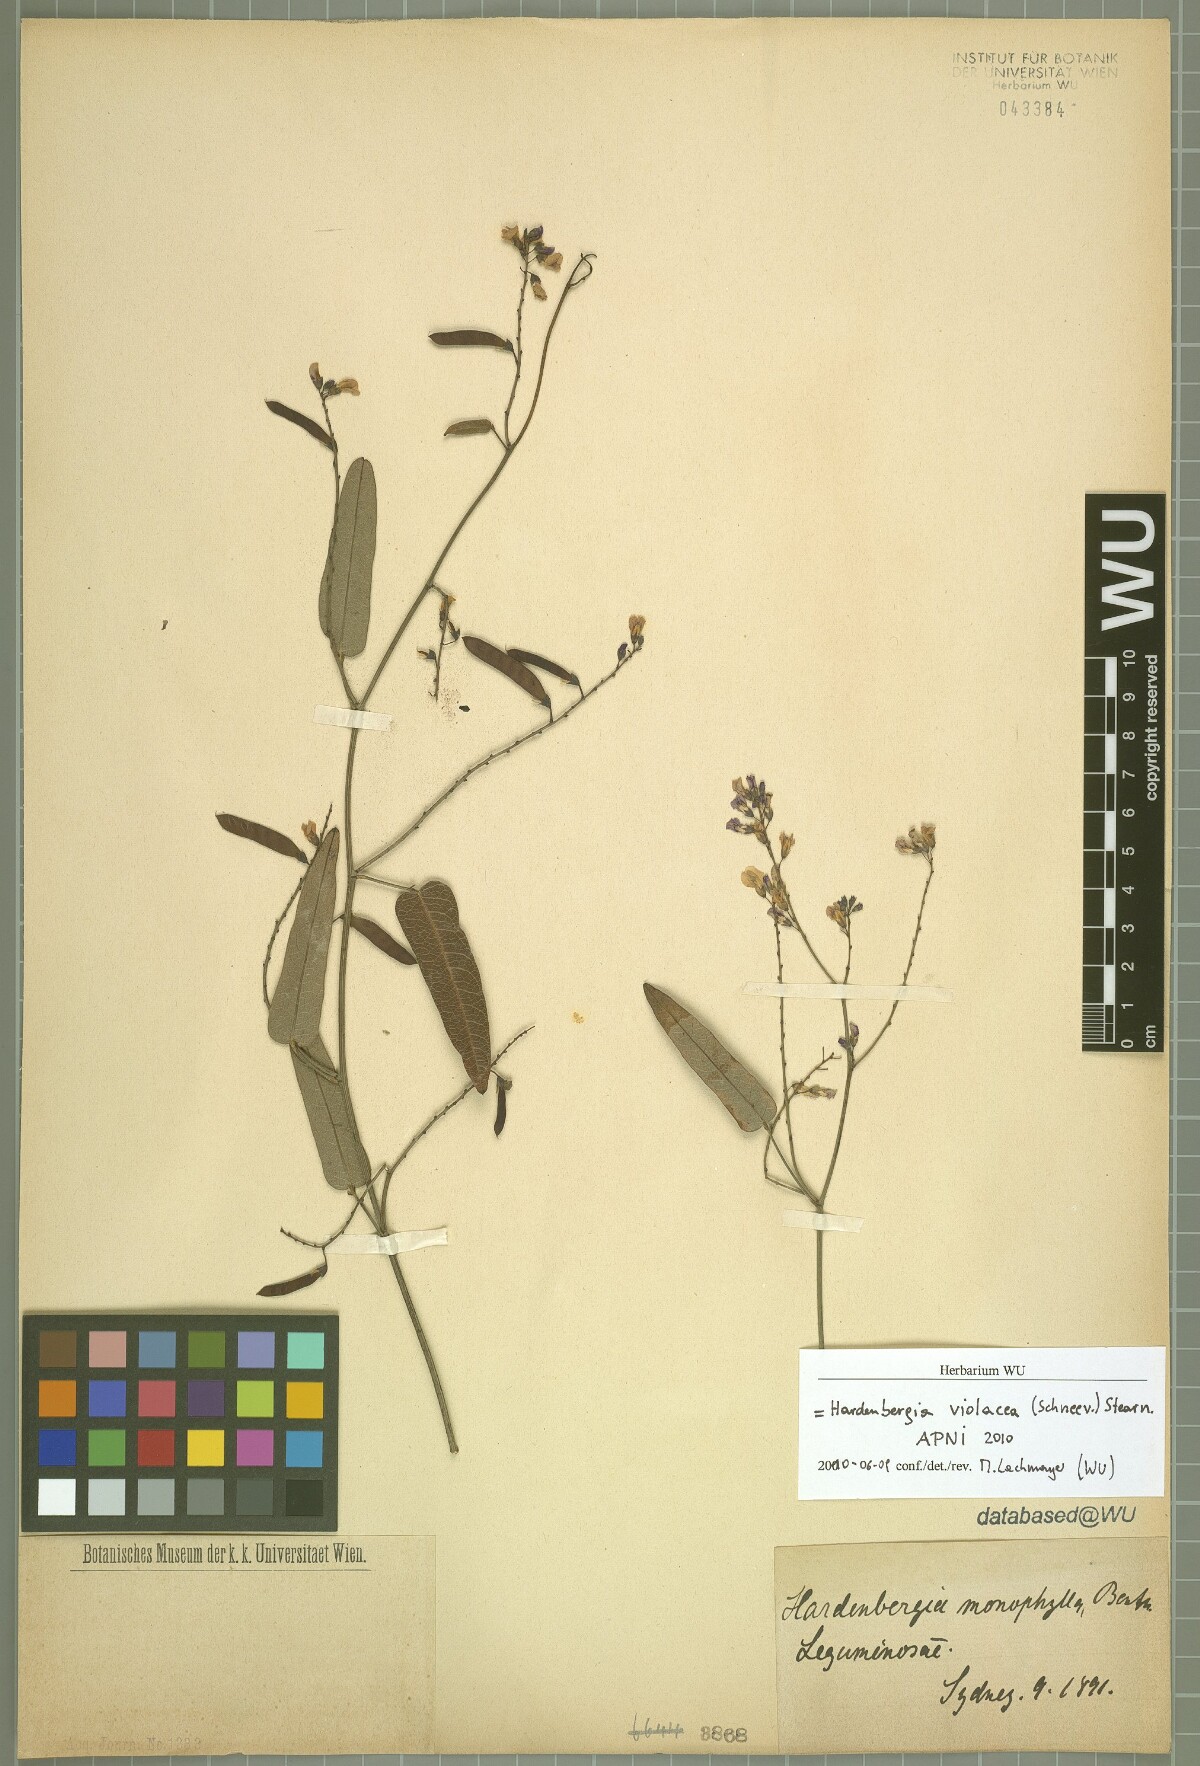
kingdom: Plantae
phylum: Tracheophyta
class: Magnoliopsida
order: Fabales
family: Fabaceae
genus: Hardenbergia
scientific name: Hardenbergia violacea
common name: Coral-pea
